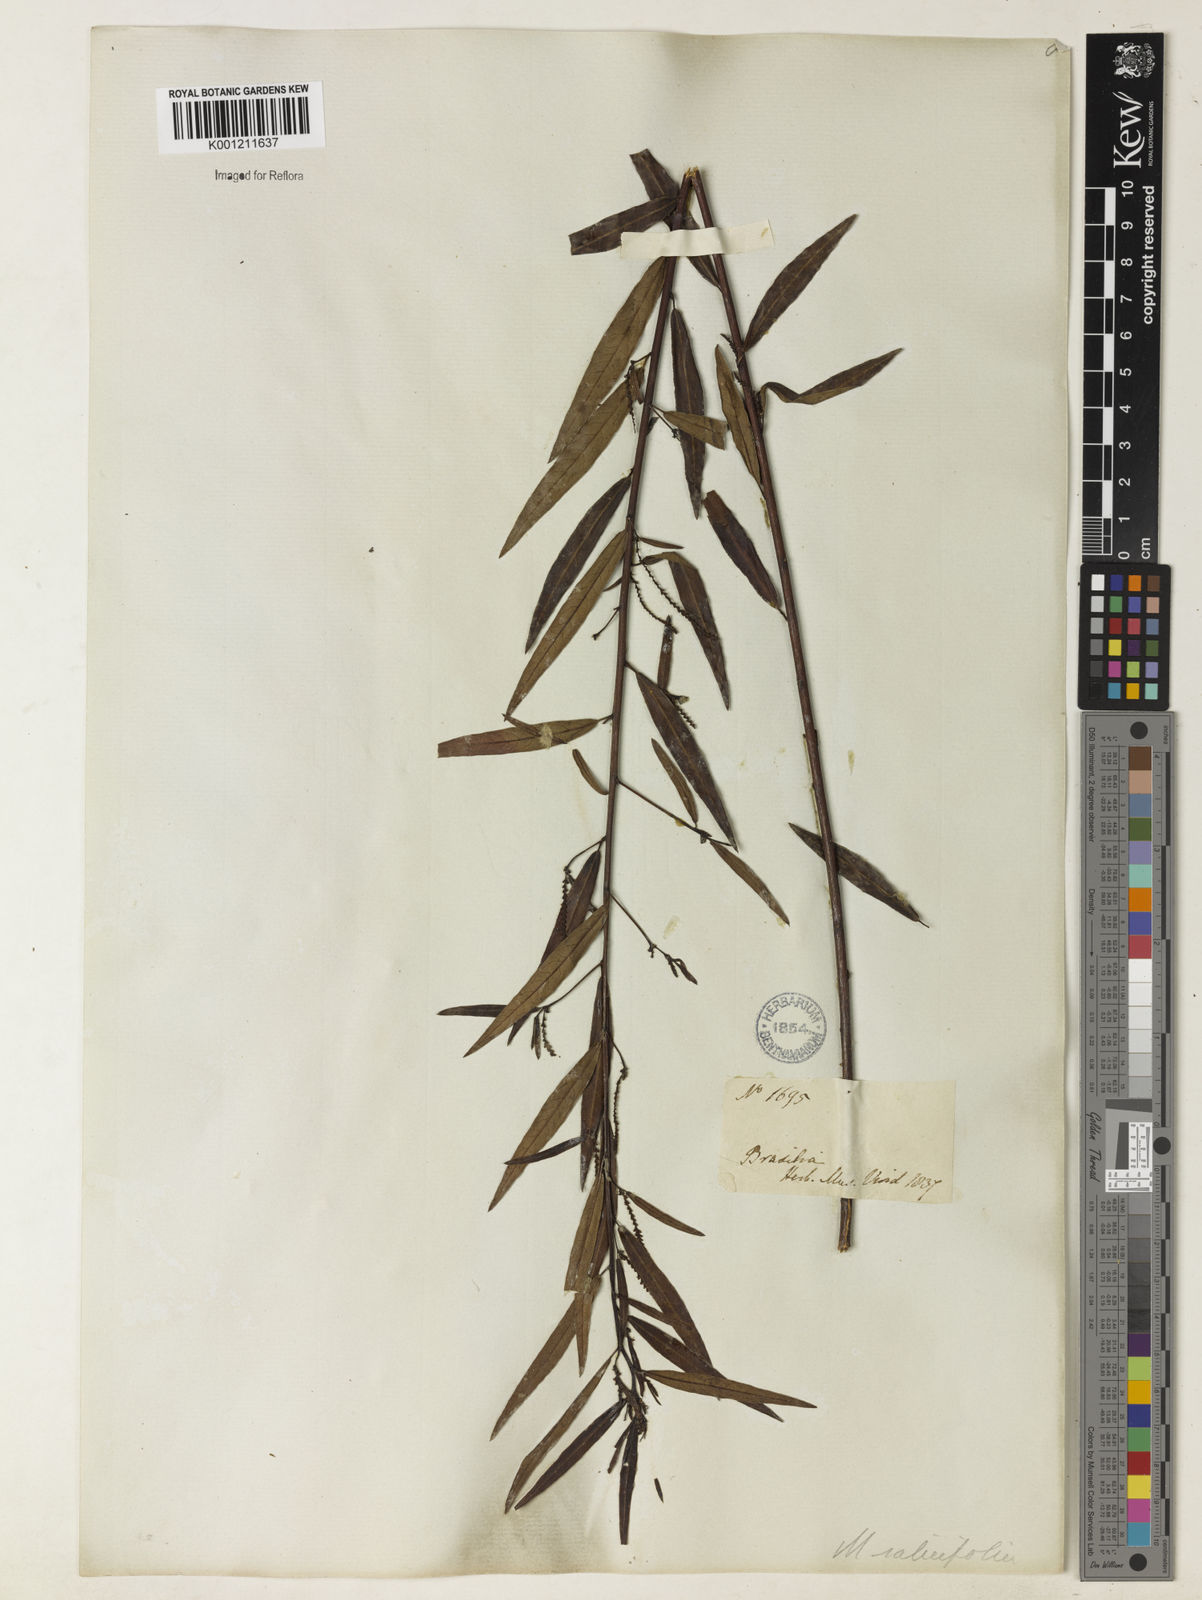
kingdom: Plantae
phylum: Tracheophyta
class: Magnoliopsida
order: Malpighiales
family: Euphorbiaceae
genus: Microstachys
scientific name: Microstachys
